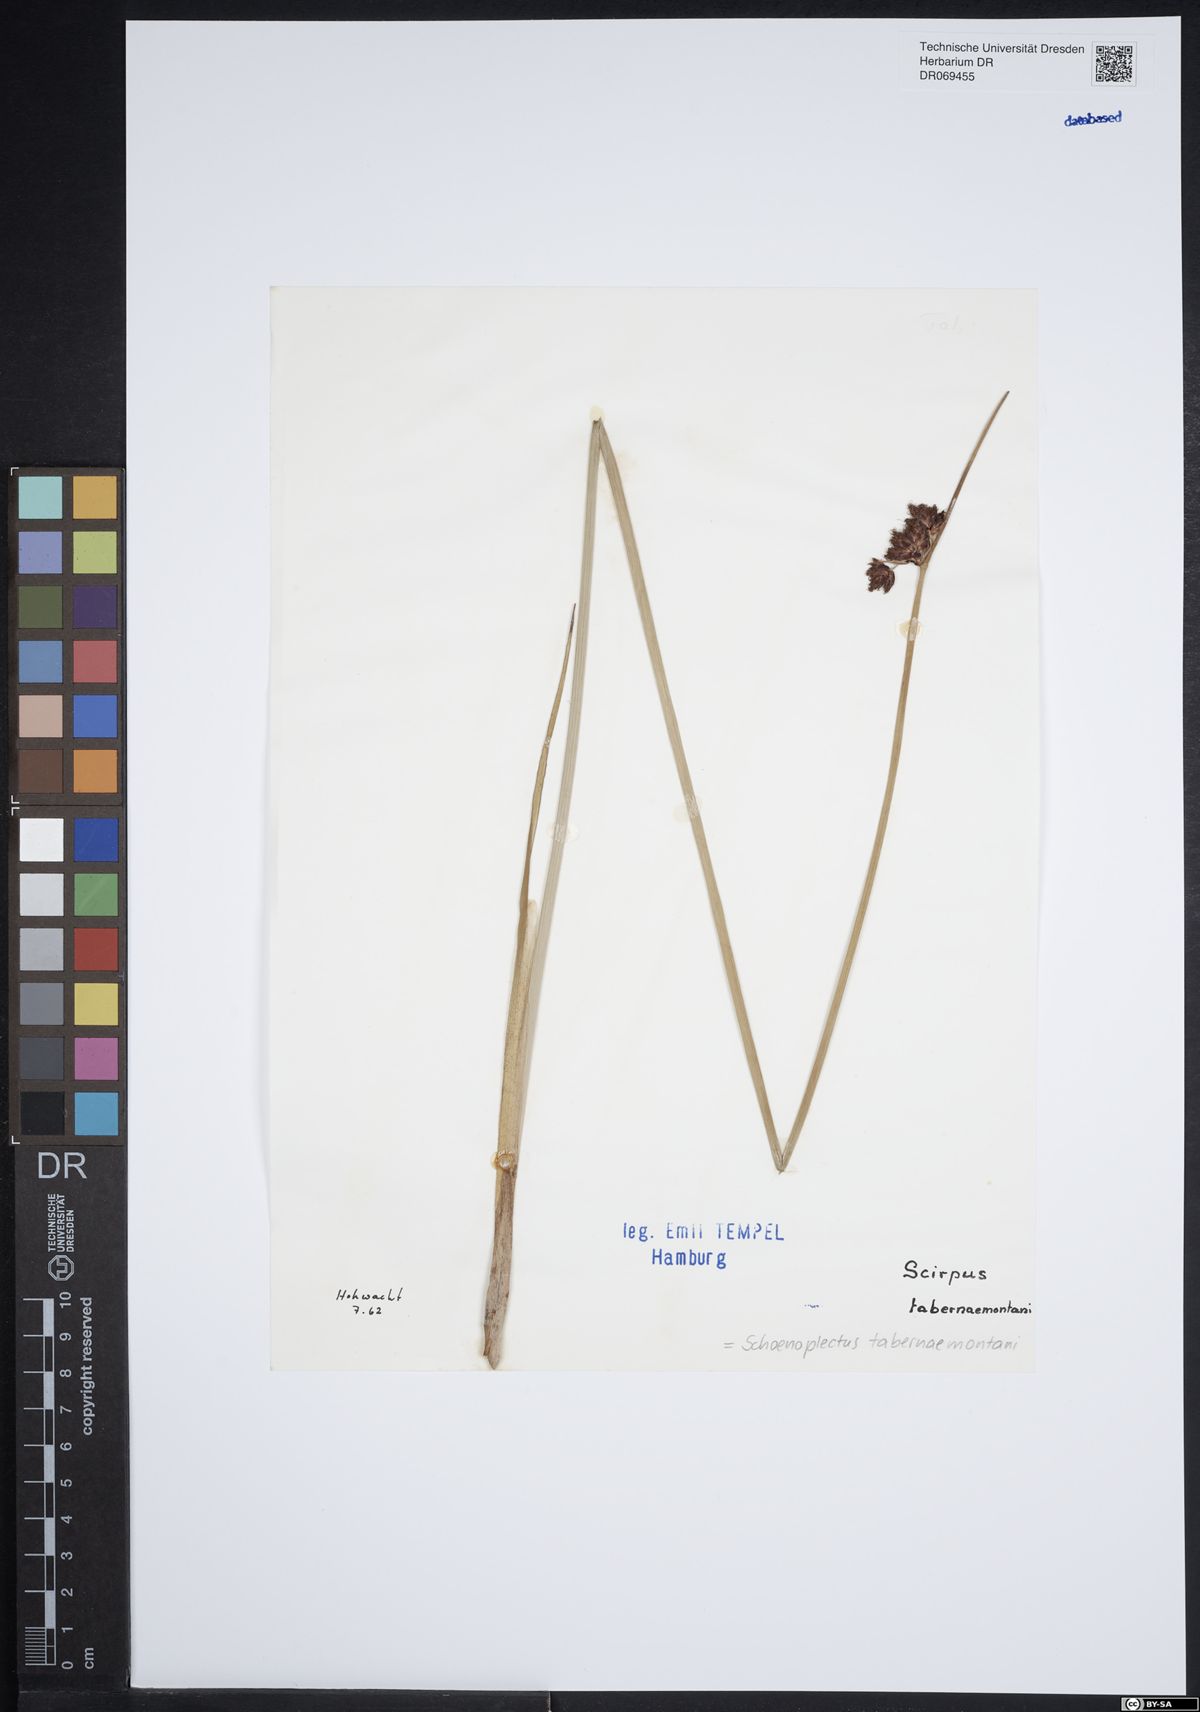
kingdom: Plantae
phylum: Tracheophyta
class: Liliopsida
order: Poales
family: Cyperaceae
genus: Schoenoplectus
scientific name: Schoenoplectus tabernaemontani
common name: Grey club-rush
